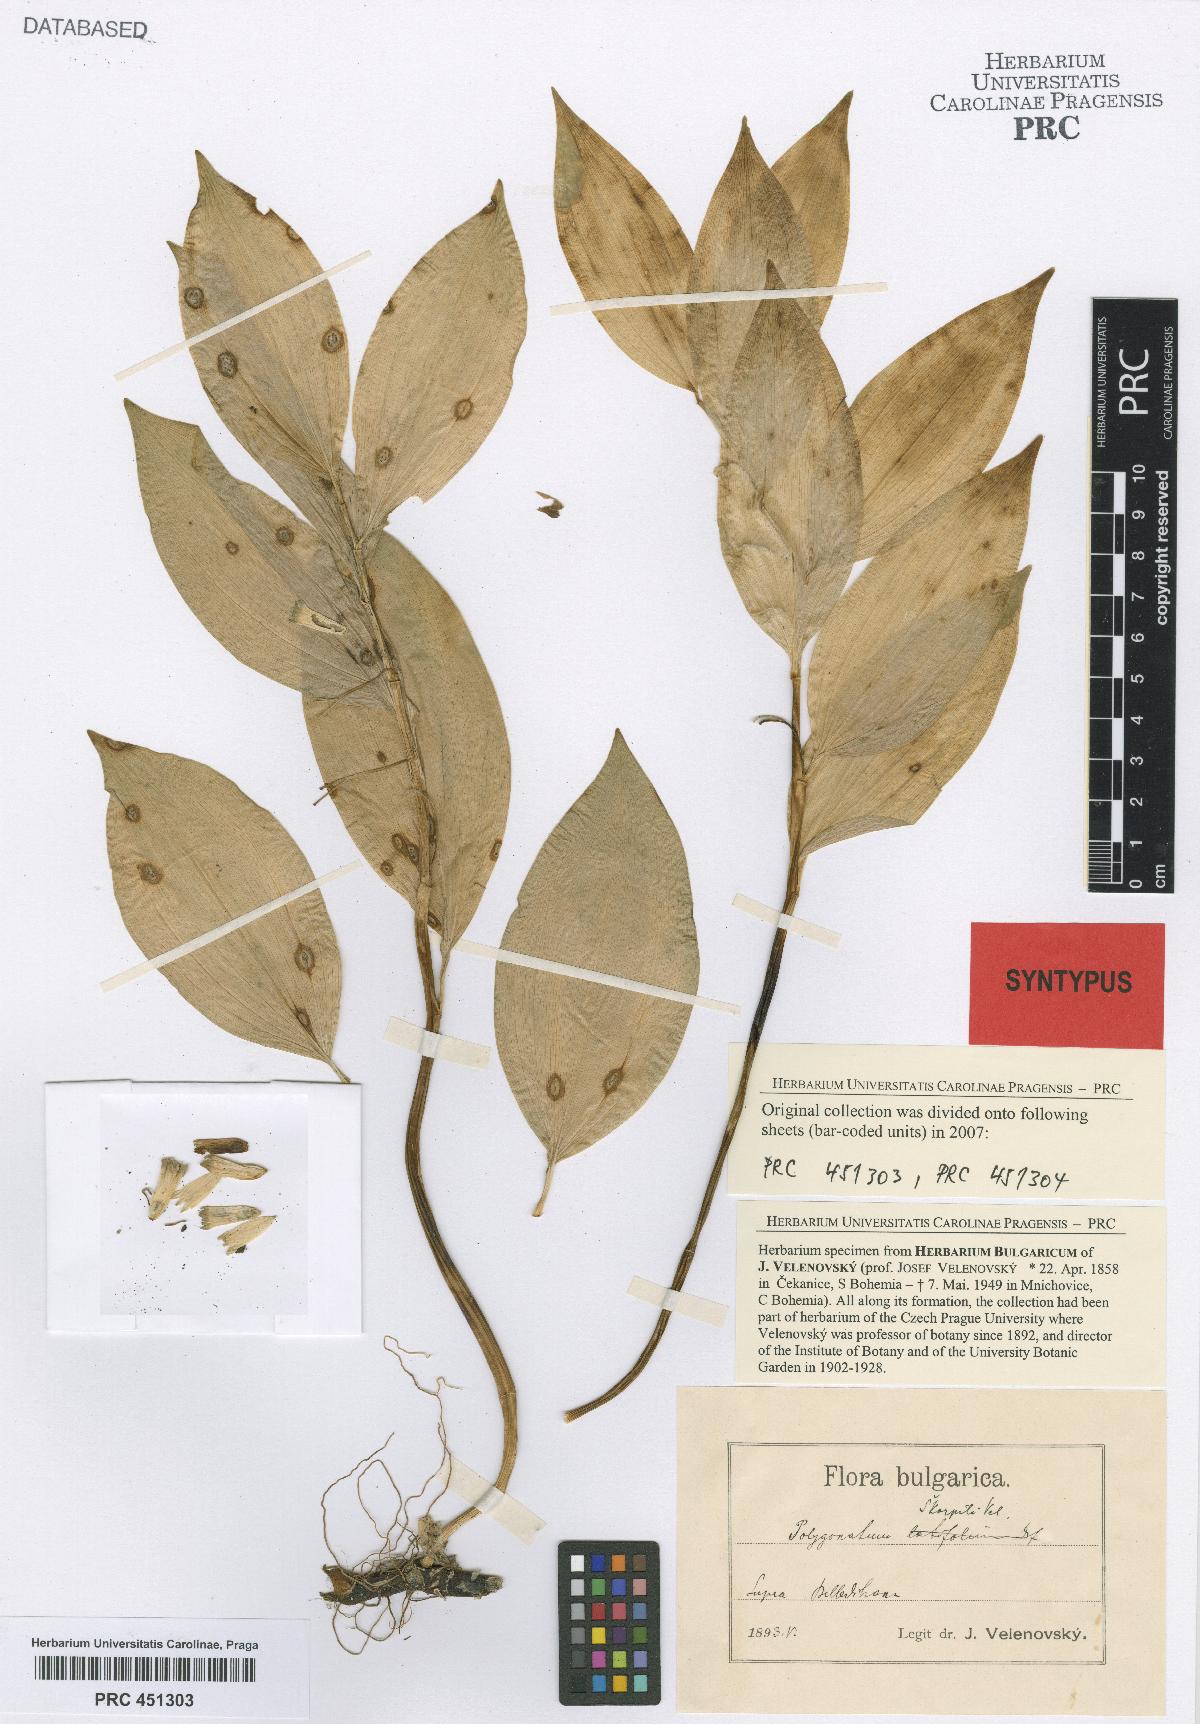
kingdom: Plantae
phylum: Tracheophyta
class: Liliopsida
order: Asparagales
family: Asparagaceae
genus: Polygonatum
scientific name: Polygonatum latifolium
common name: Broadleaf solomon's seal
